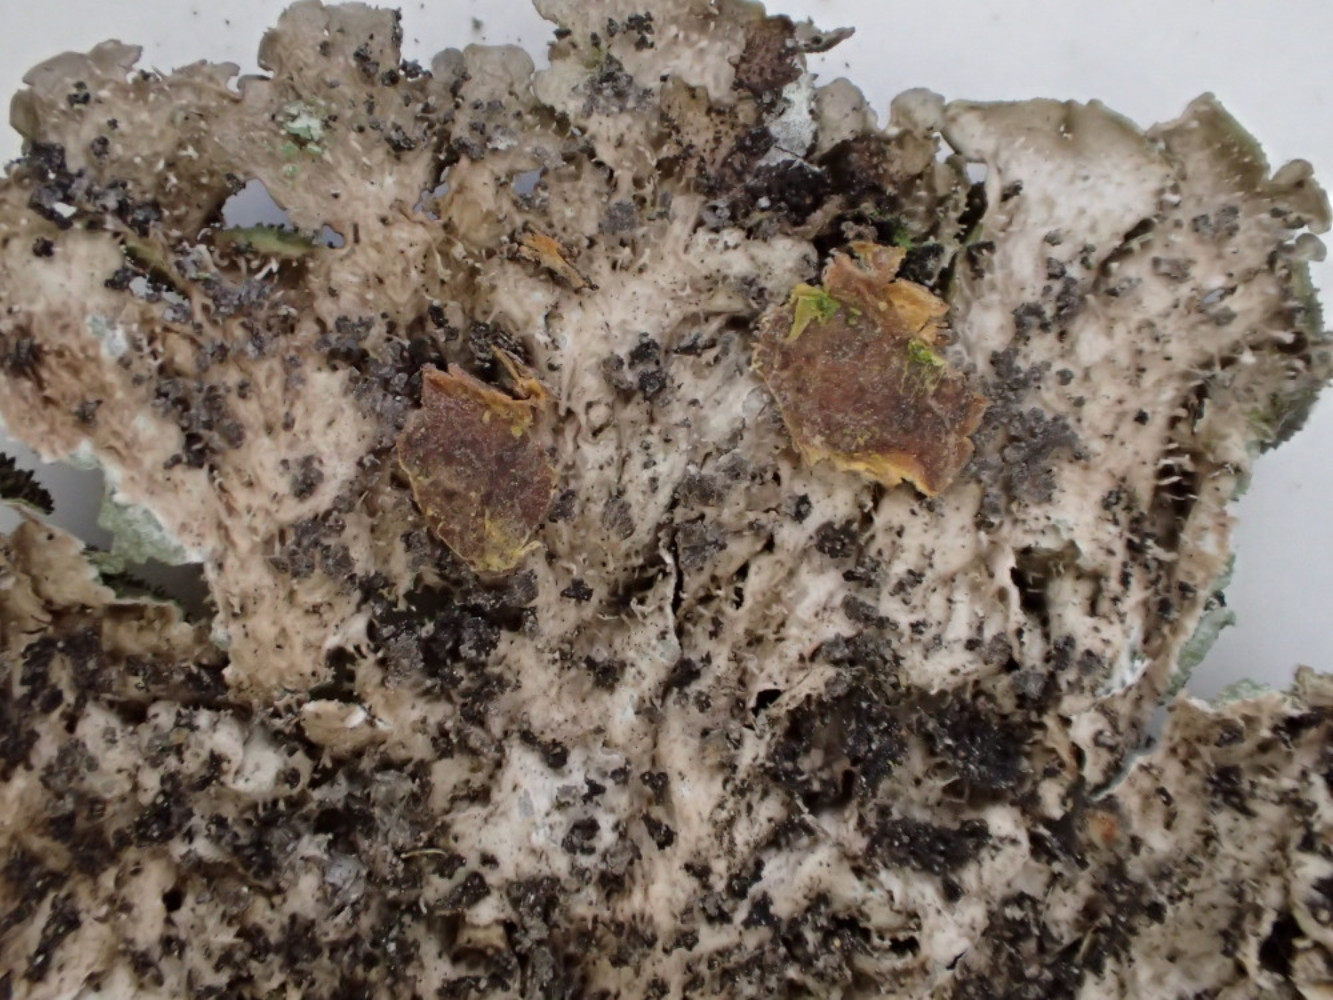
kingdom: Fungi
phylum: Ascomycota
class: Lecanoromycetes
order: Lecanorales
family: Parmeliaceae
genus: Melanohalea
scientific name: Melanohalea elegantula
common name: elegant skållav
